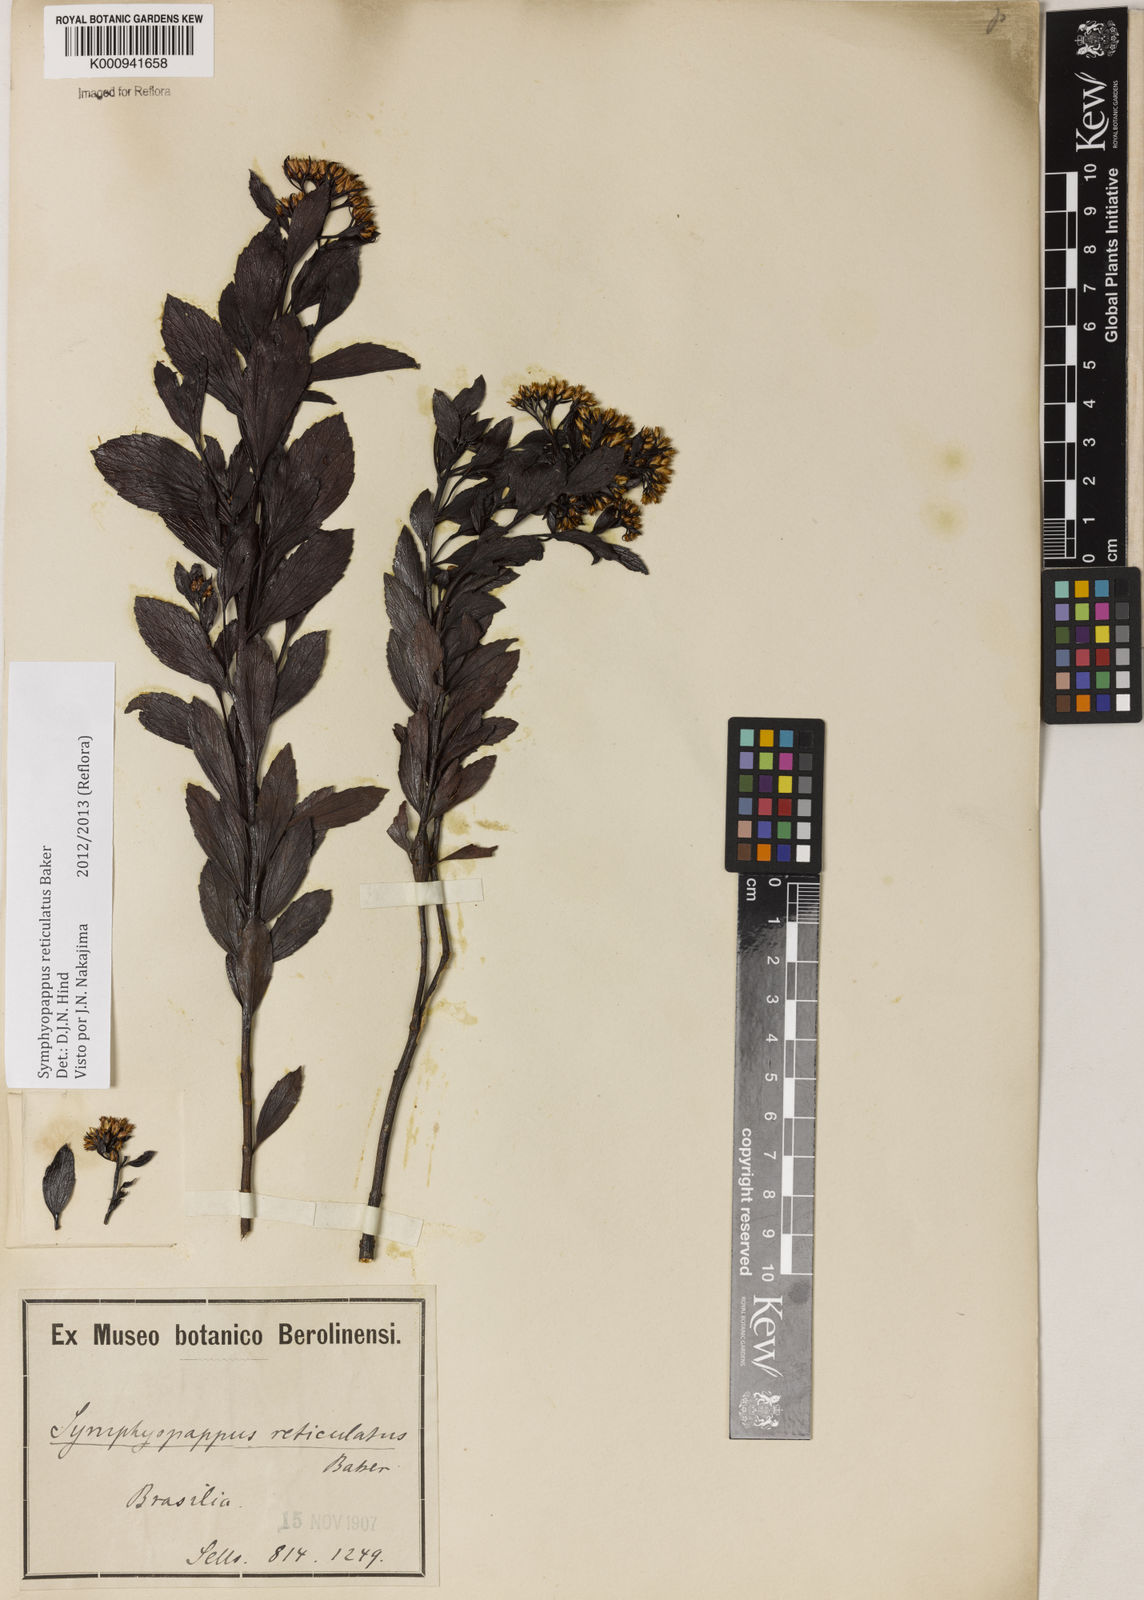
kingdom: Plantae
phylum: Tracheophyta
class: Magnoliopsida
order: Asterales
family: Asteraceae
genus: Symphyopappus
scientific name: Symphyopappus
